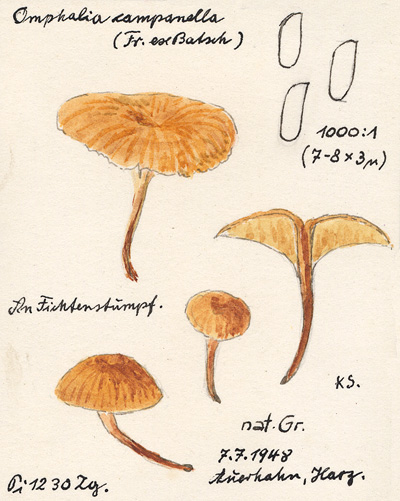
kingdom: Fungi
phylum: Basidiomycota
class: Agaricomycetes
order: Agaricales
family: Mycenaceae
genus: Xeromphalina
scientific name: Xeromphalina campanella
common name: Pinewood gingertail
